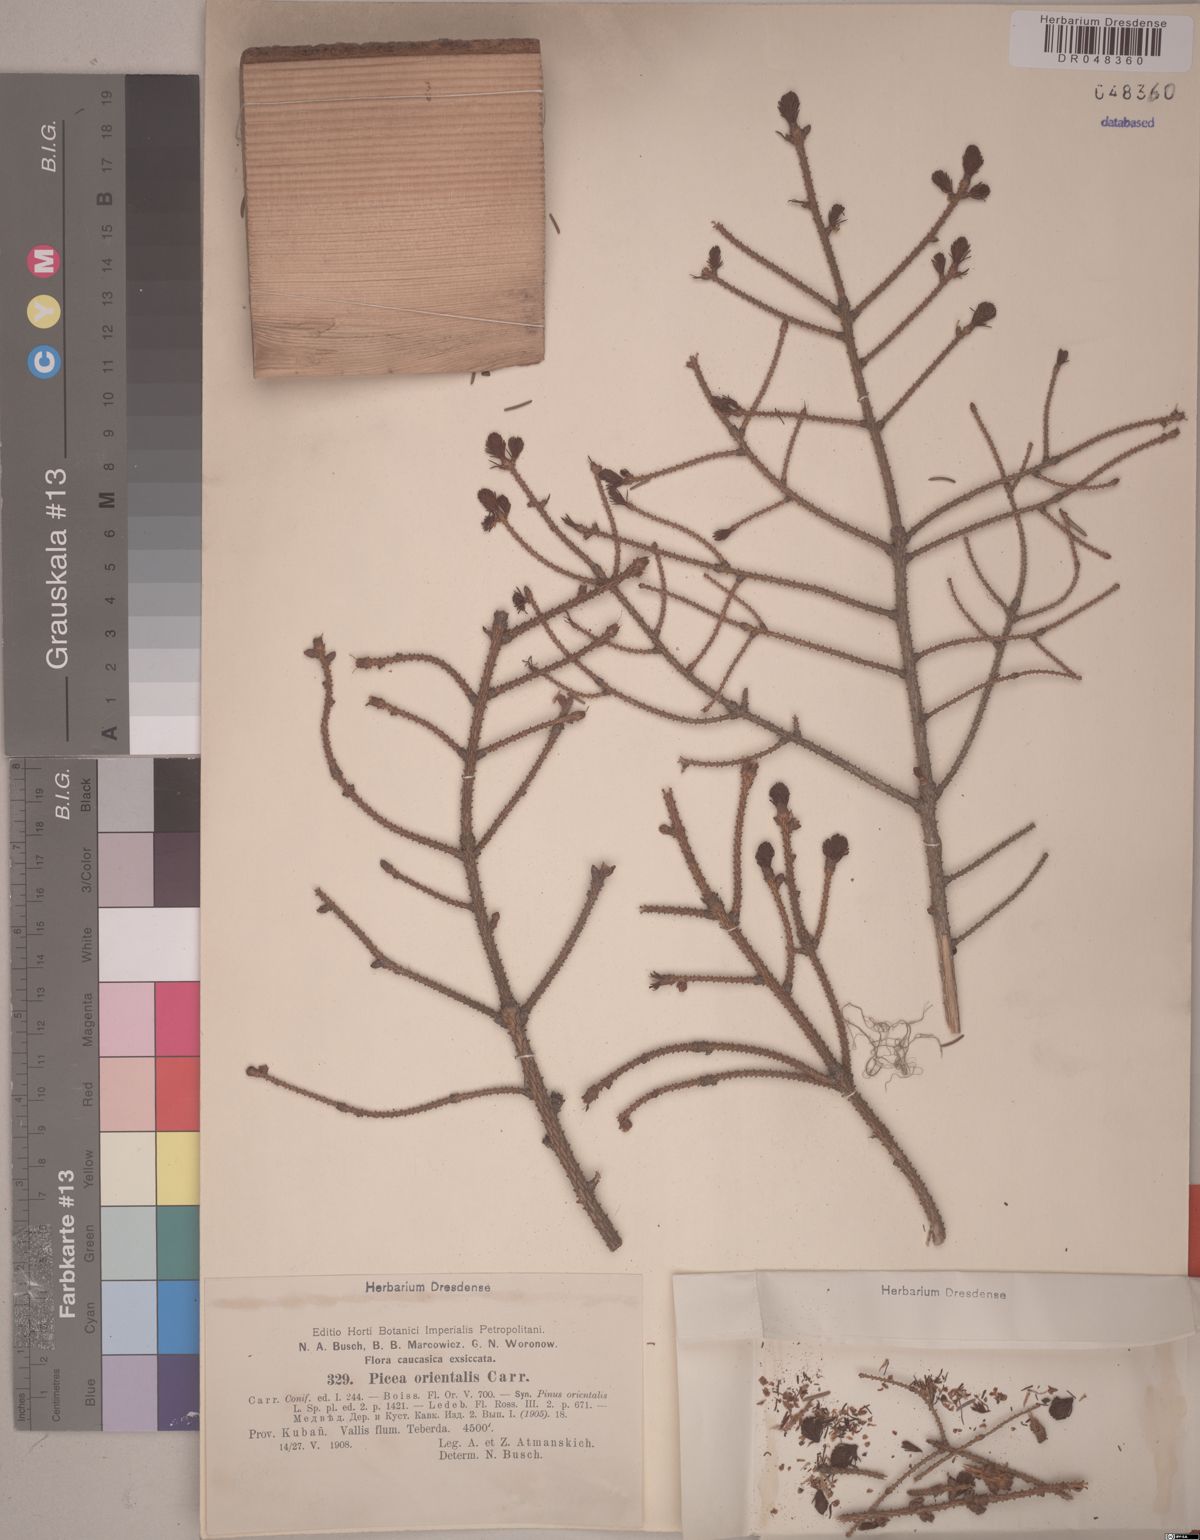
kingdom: Plantae
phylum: Tracheophyta
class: Pinopsida
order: Pinales
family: Pinaceae
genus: Picea
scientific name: Picea orientalis
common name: Oriental spruce
